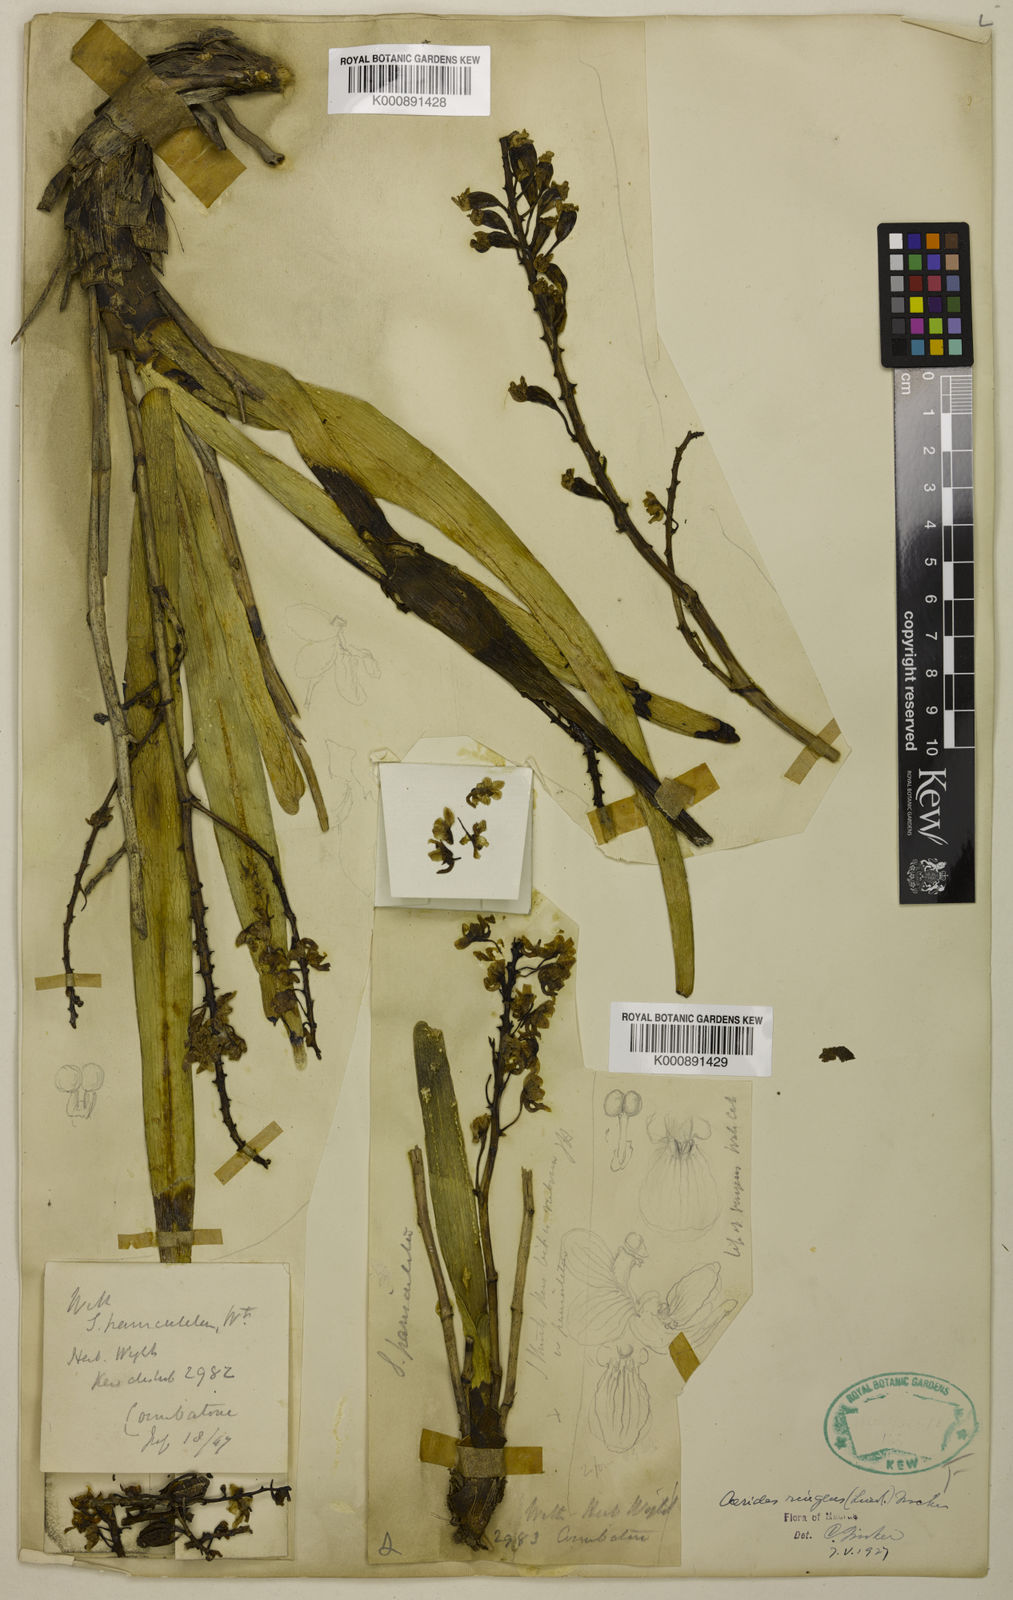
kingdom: Plantae
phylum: Tracheophyta
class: Liliopsida
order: Asparagales
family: Orchidaceae
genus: Aerides
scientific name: Aerides ringens
